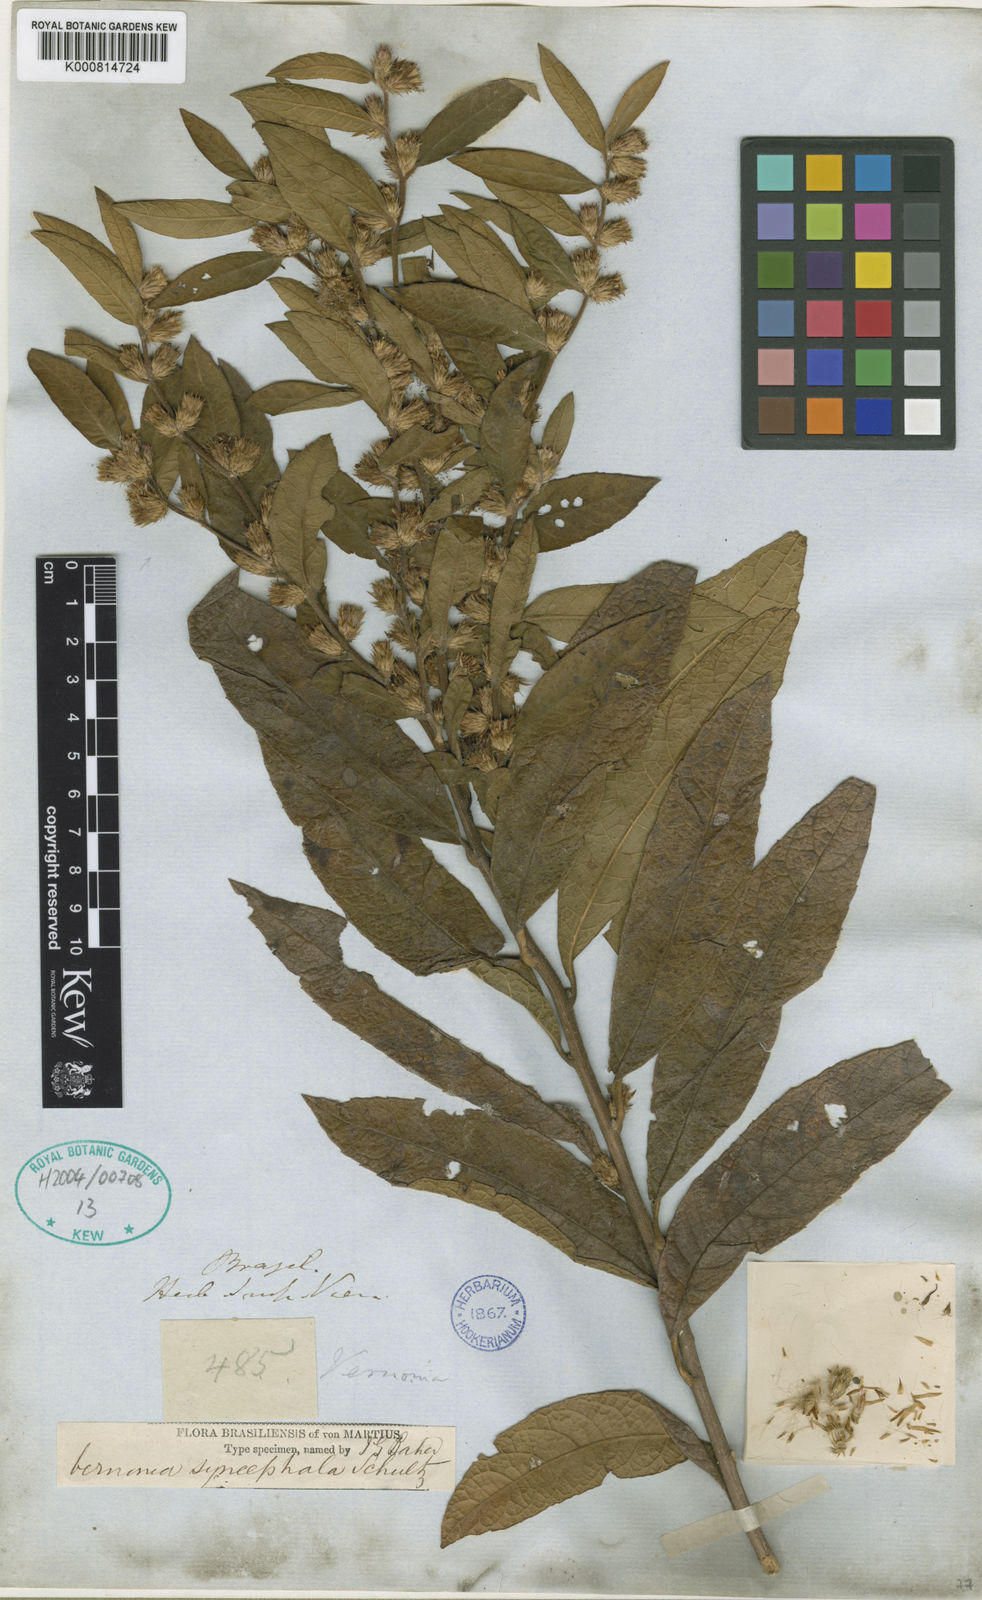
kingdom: Plantae
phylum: Tracheophyta
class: Magnoliopsida
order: Asterales
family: Asteraceae
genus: Lessingianthus
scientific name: Lessingianthus syncephalus
